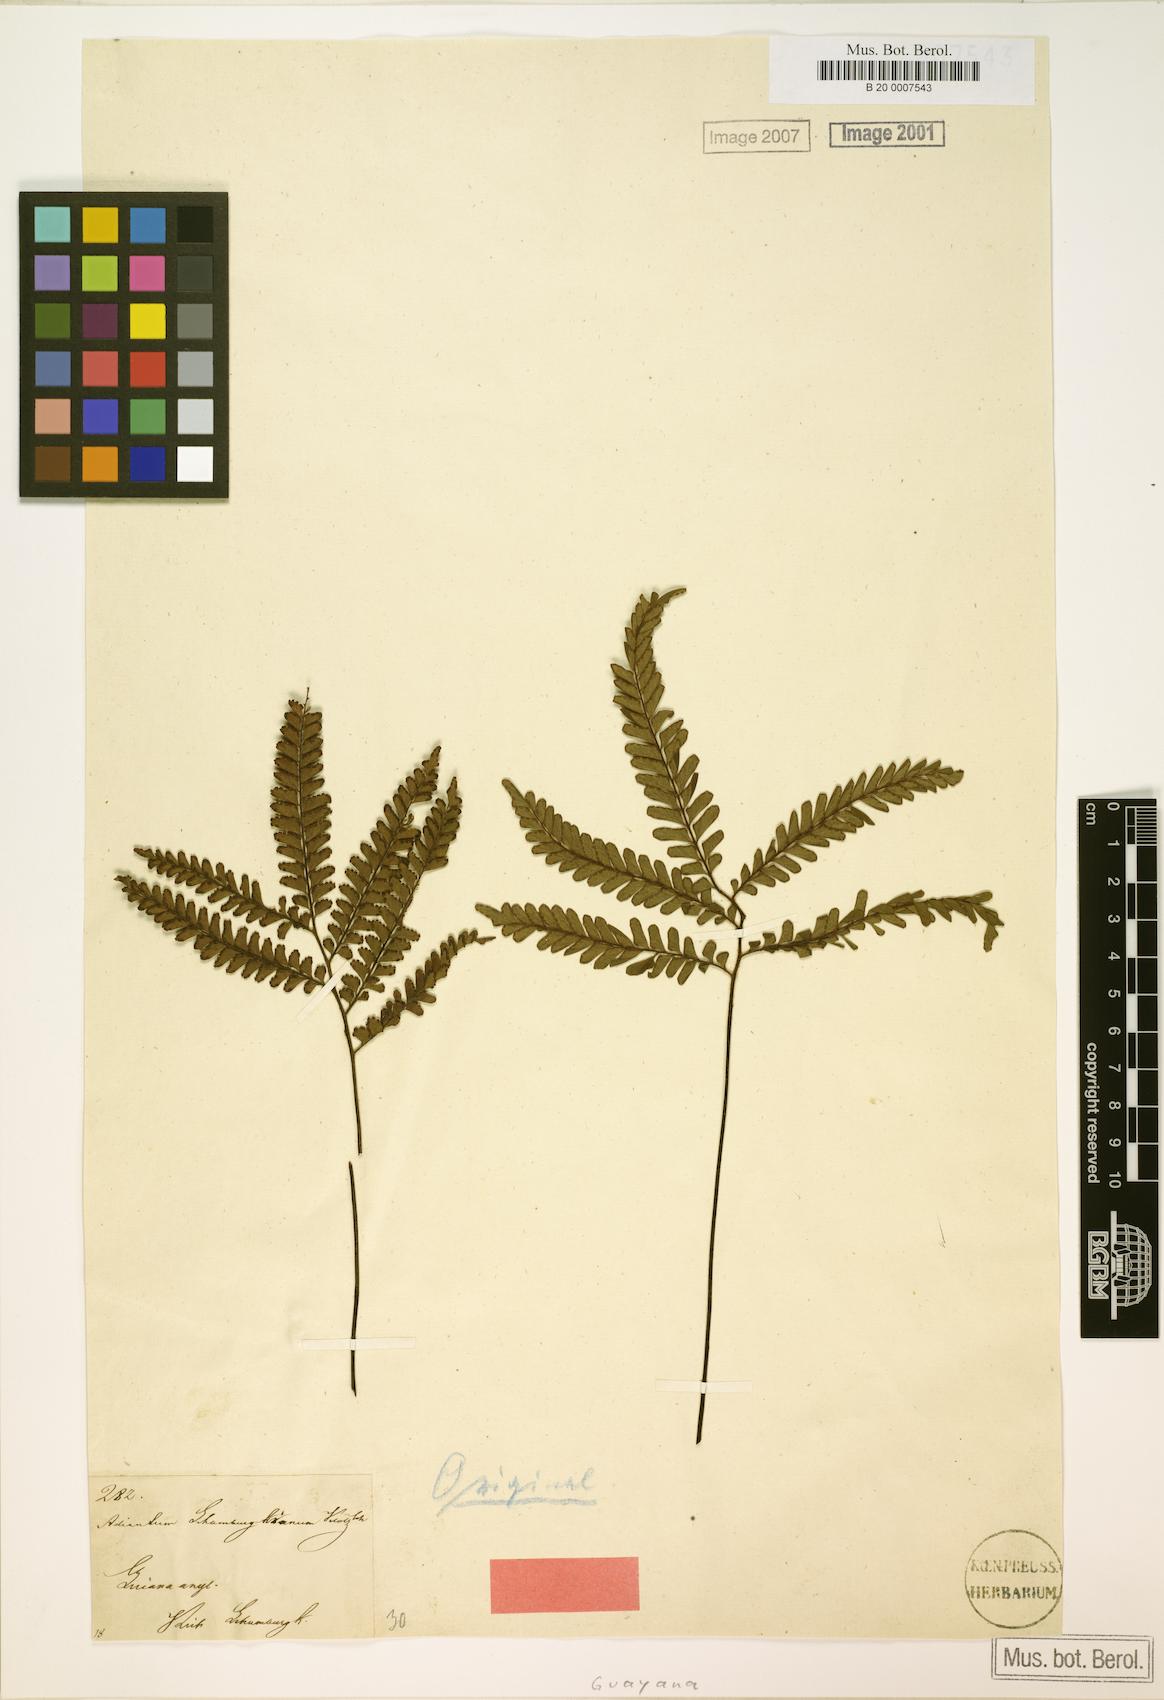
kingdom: Plantae
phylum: Tracheophyta
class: Polypodiopsida
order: Polypodiales
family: Pteridaceae
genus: Adiantum
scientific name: Adiantum terminatum
